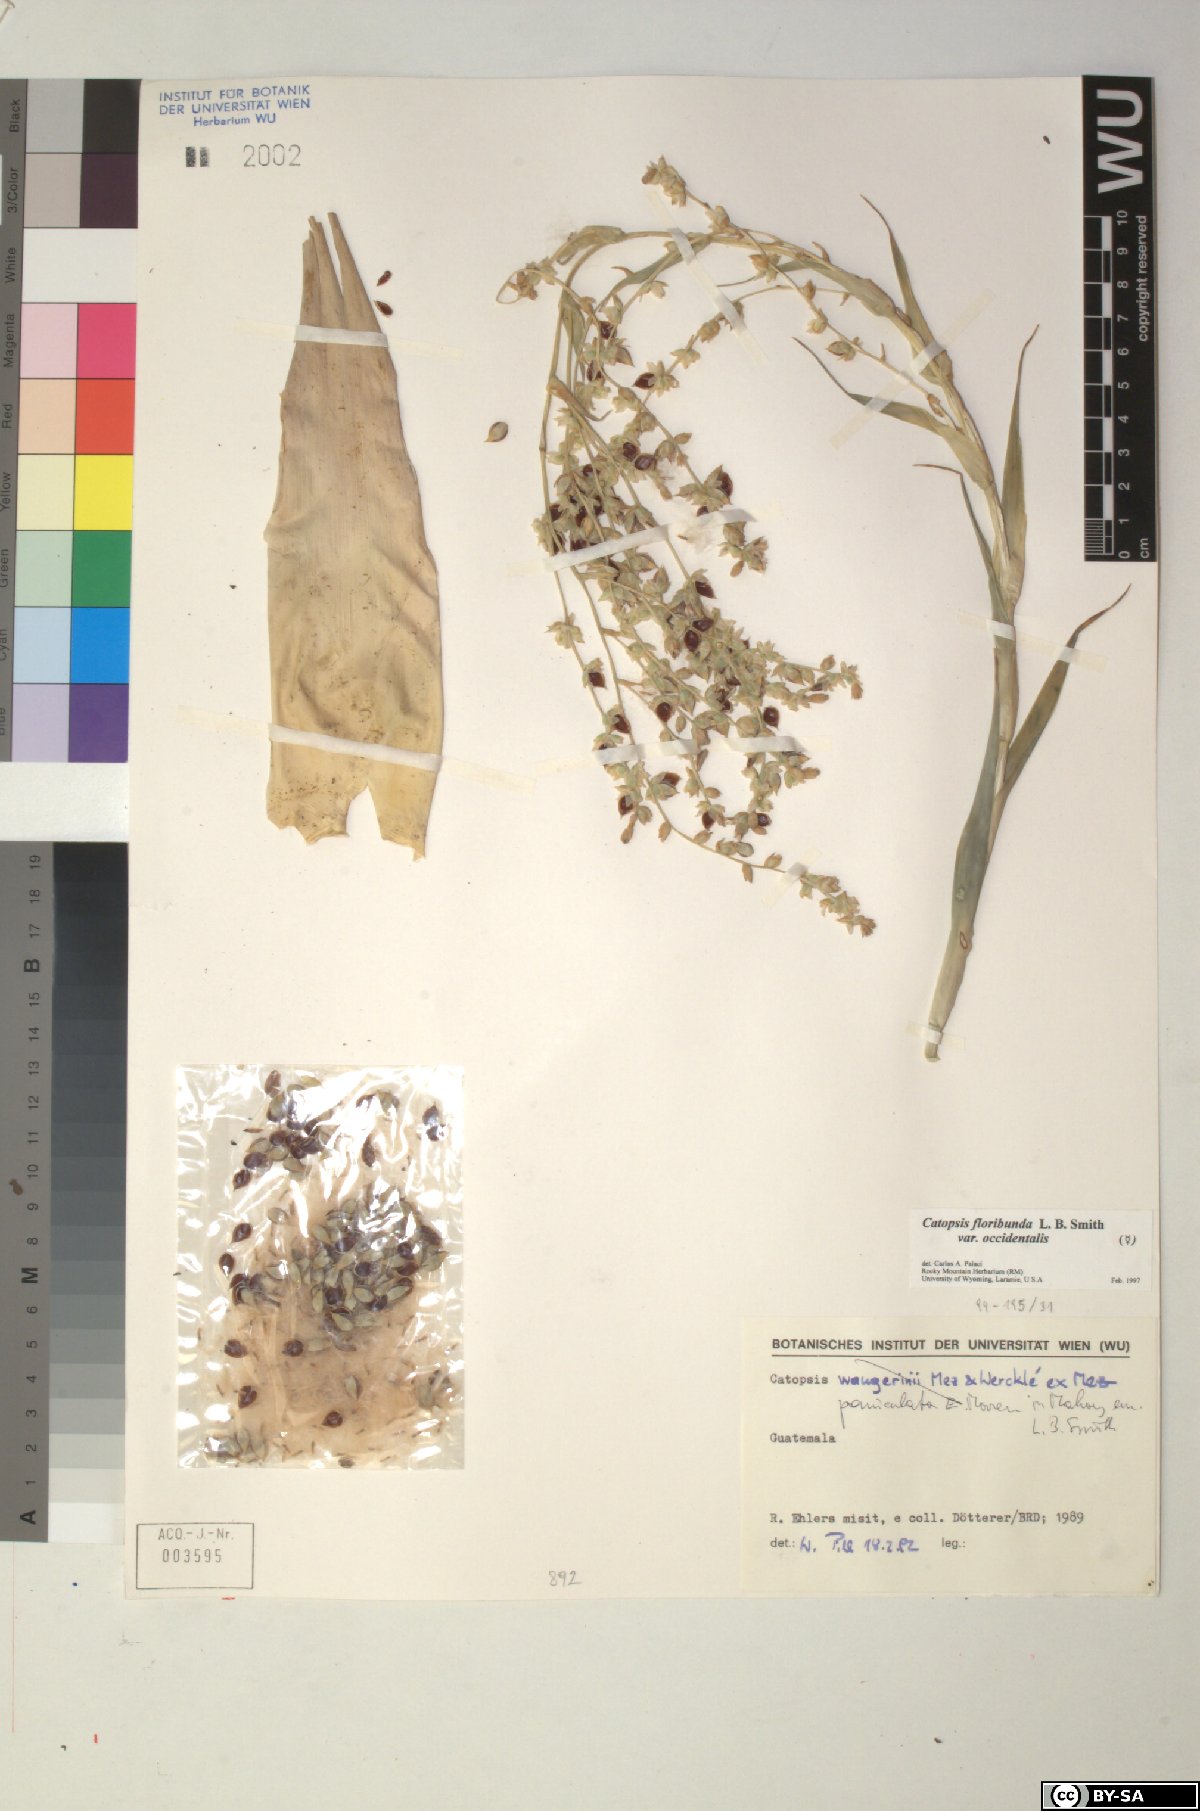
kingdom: Plantae
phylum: Tracheophyta
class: Liliopsida
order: Poales
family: Bromeliaceae
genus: Catopsis
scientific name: Catopsis
